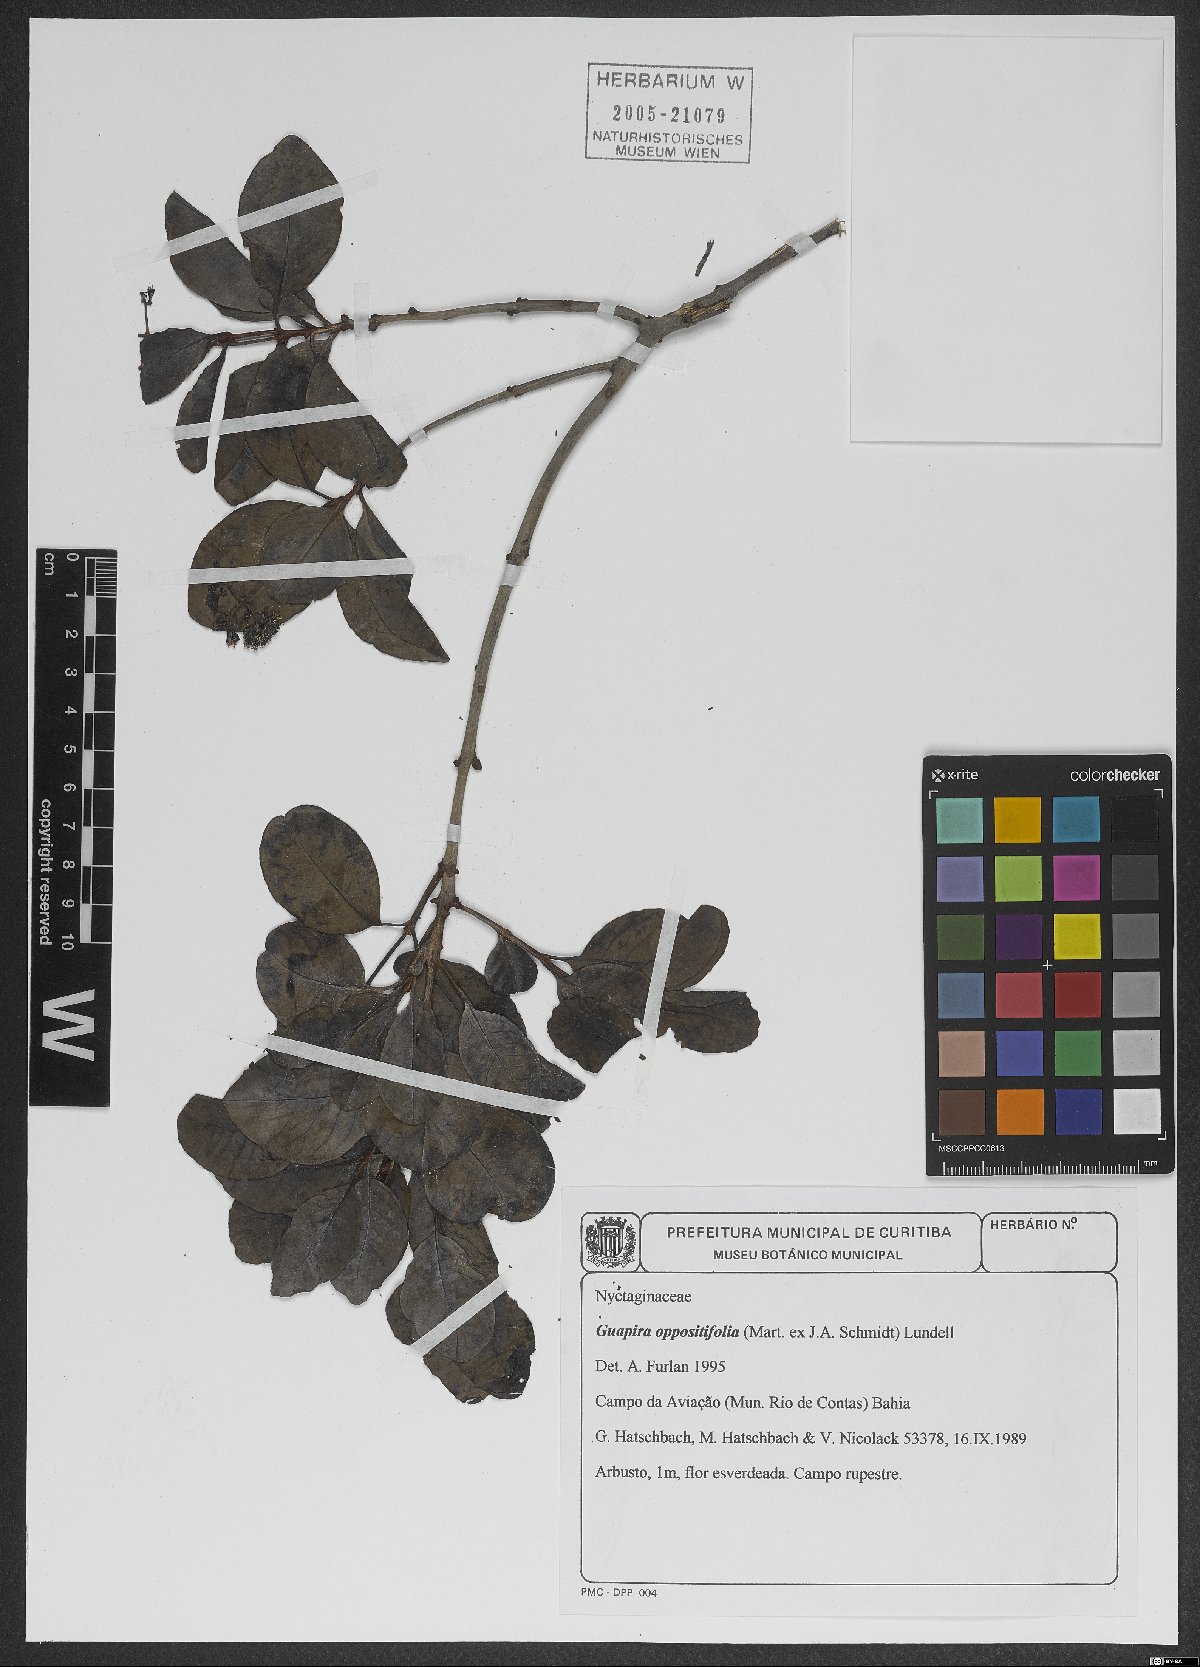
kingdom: Plantae
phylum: Tracheophyta
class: Magnoliopsida
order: Caryophyllales
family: Nyctaginaceae
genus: Guapira
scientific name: Guapira opposita
